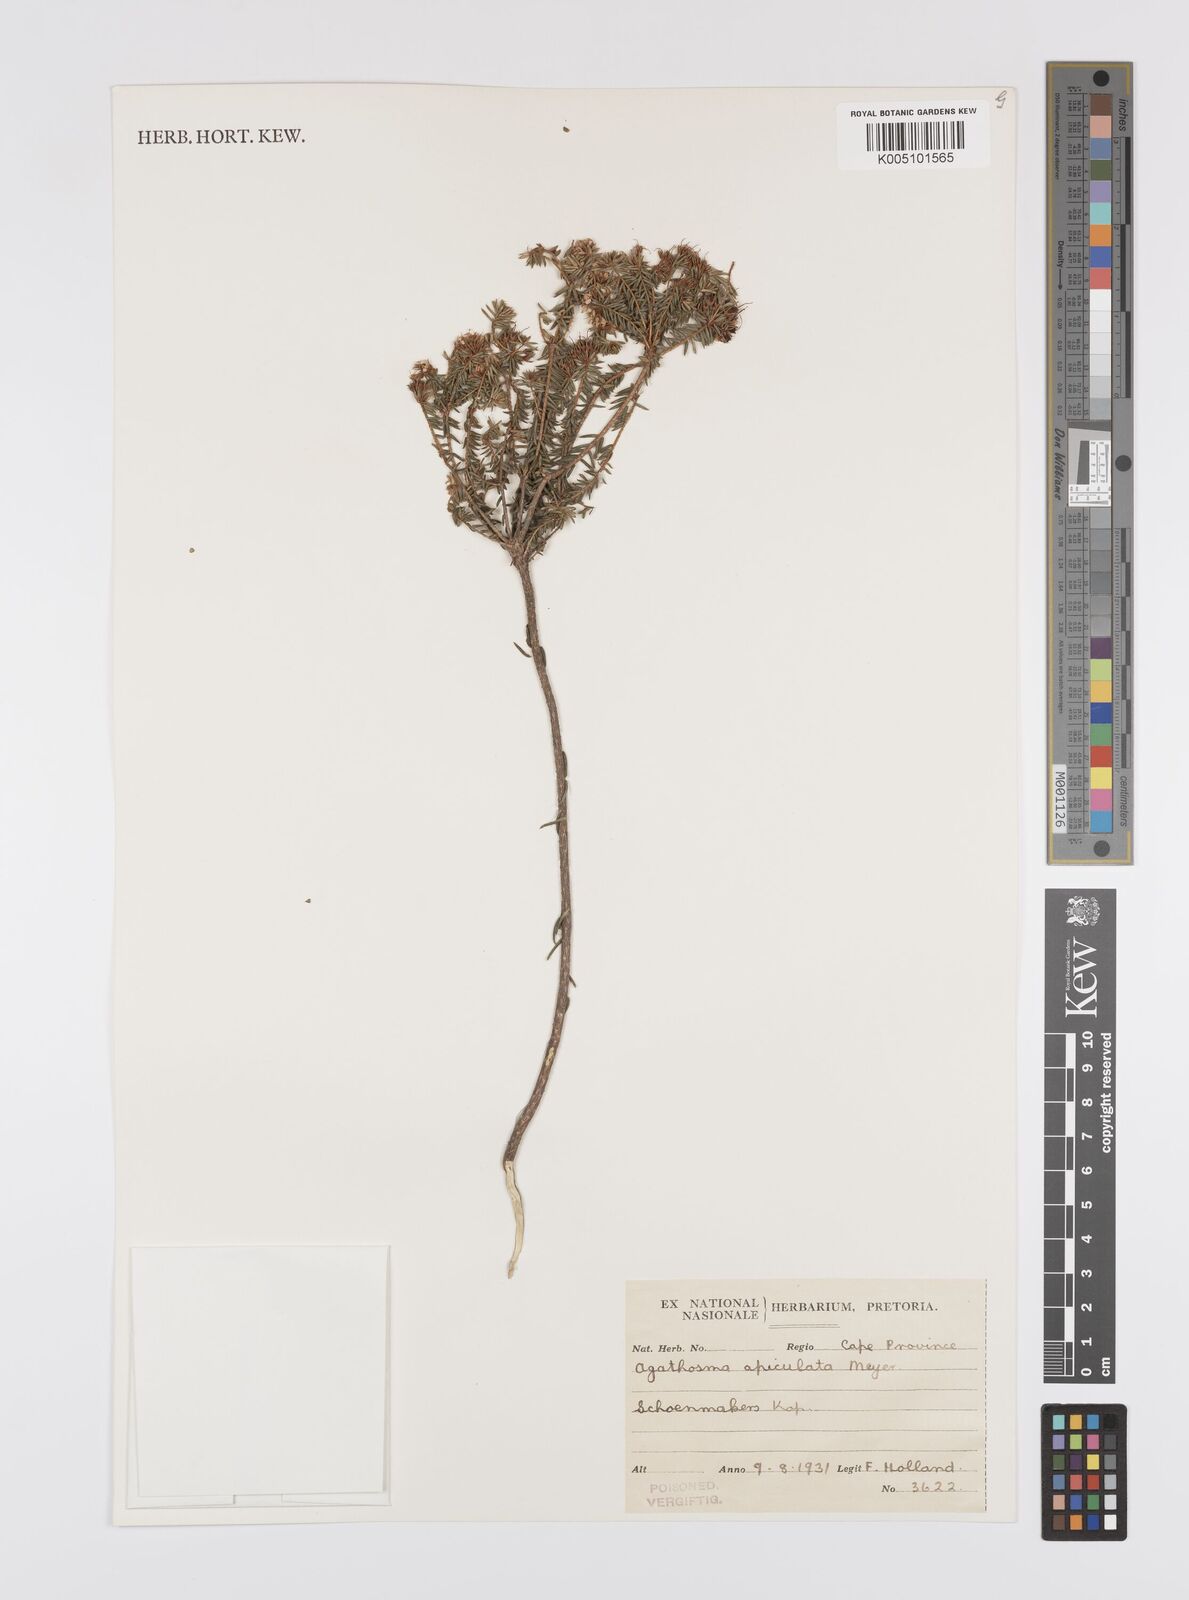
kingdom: Plantae
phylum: Tracheophyta
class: Magnoliopsida
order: Sapindales
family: Rutaceae
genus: Agathosma
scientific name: Agathosma
